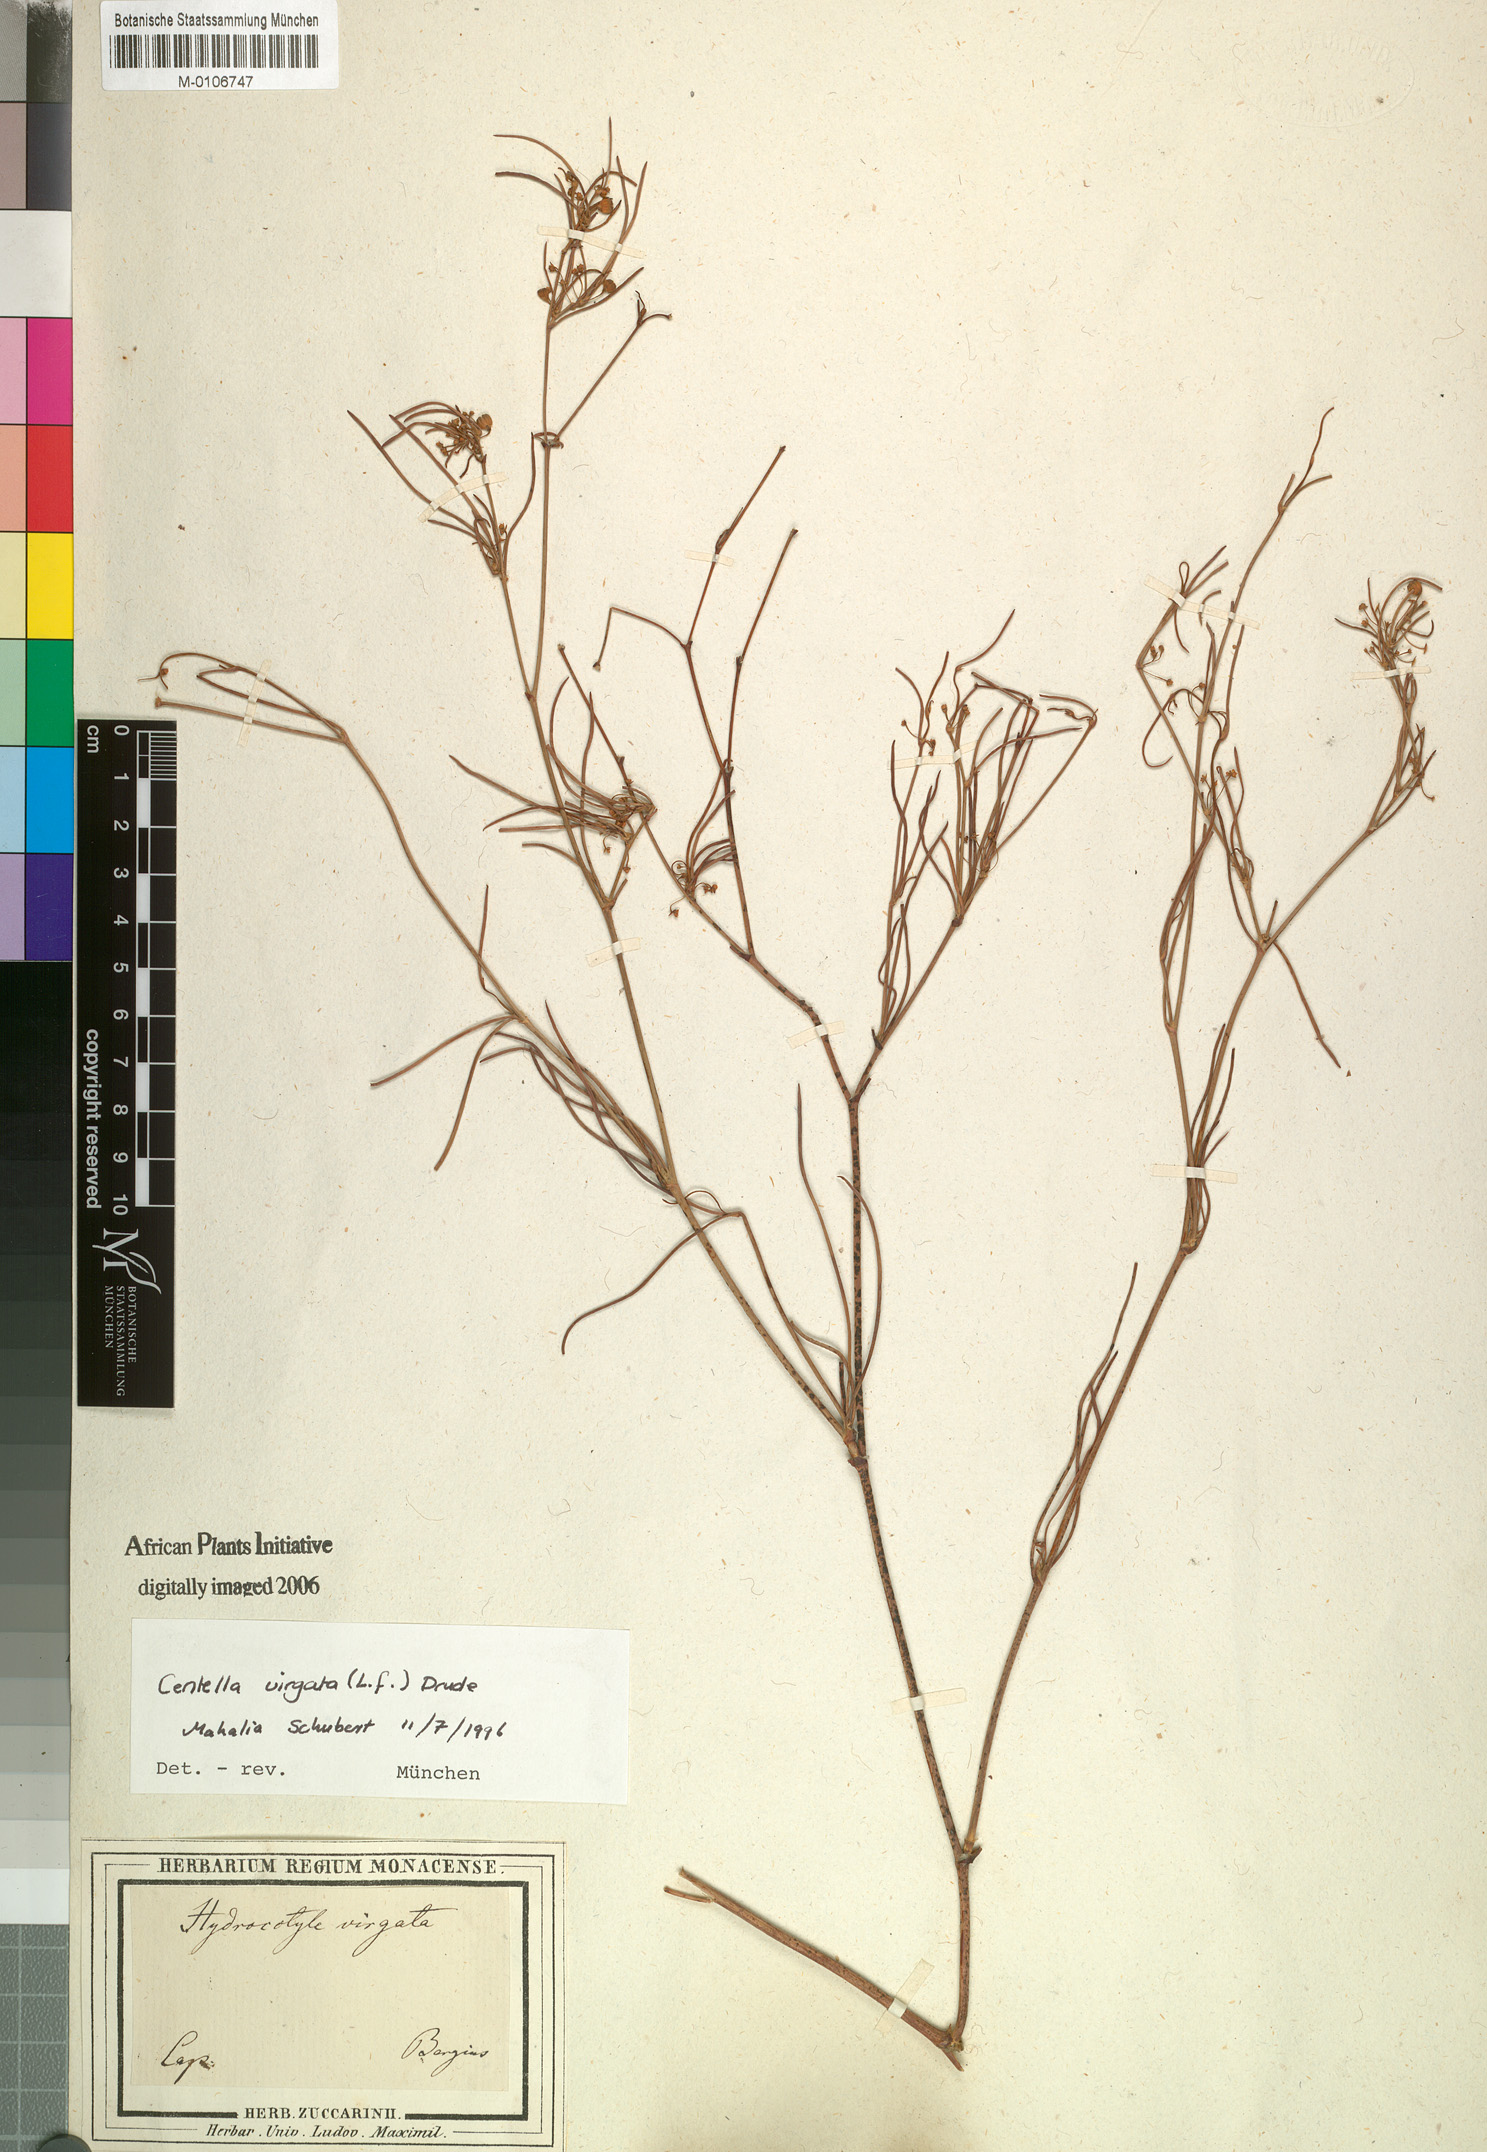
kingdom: Plantae
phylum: Tracheophyta
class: Magnoliopsida
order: Apiales
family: Apiaceae
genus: Centella
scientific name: Centella virgata
